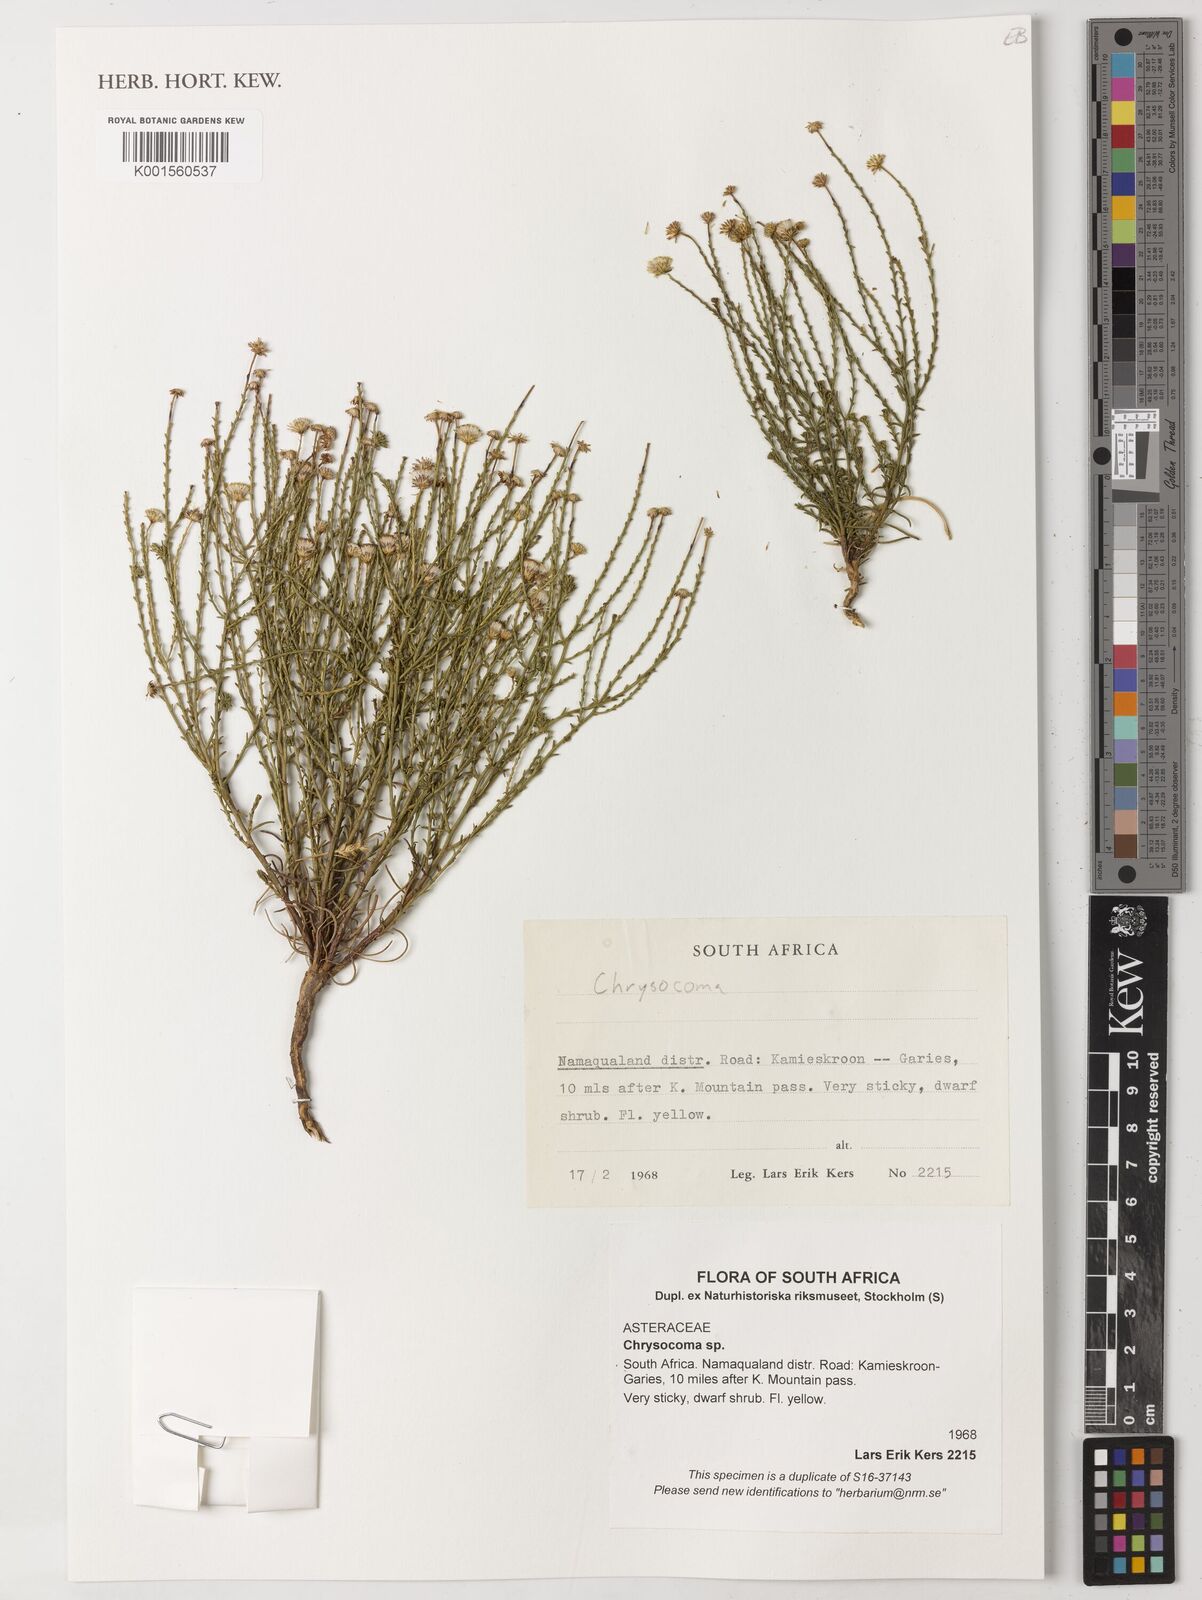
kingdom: Plantae
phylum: Tracheophyta
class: Magnoliopsida
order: Asterales
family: Asteraceae
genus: Chrysocoma
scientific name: Chrysocoma
